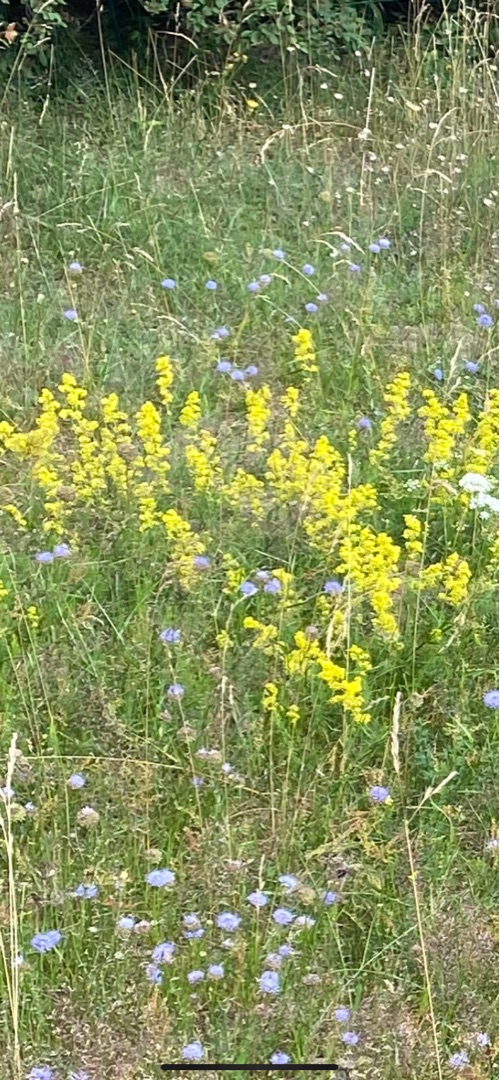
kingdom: Plantae
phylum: Tracheophyta
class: Magnoliopsida
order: Gentianales
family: Rubiaceae
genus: Galium
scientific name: Galium verum
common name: Gul snerre
